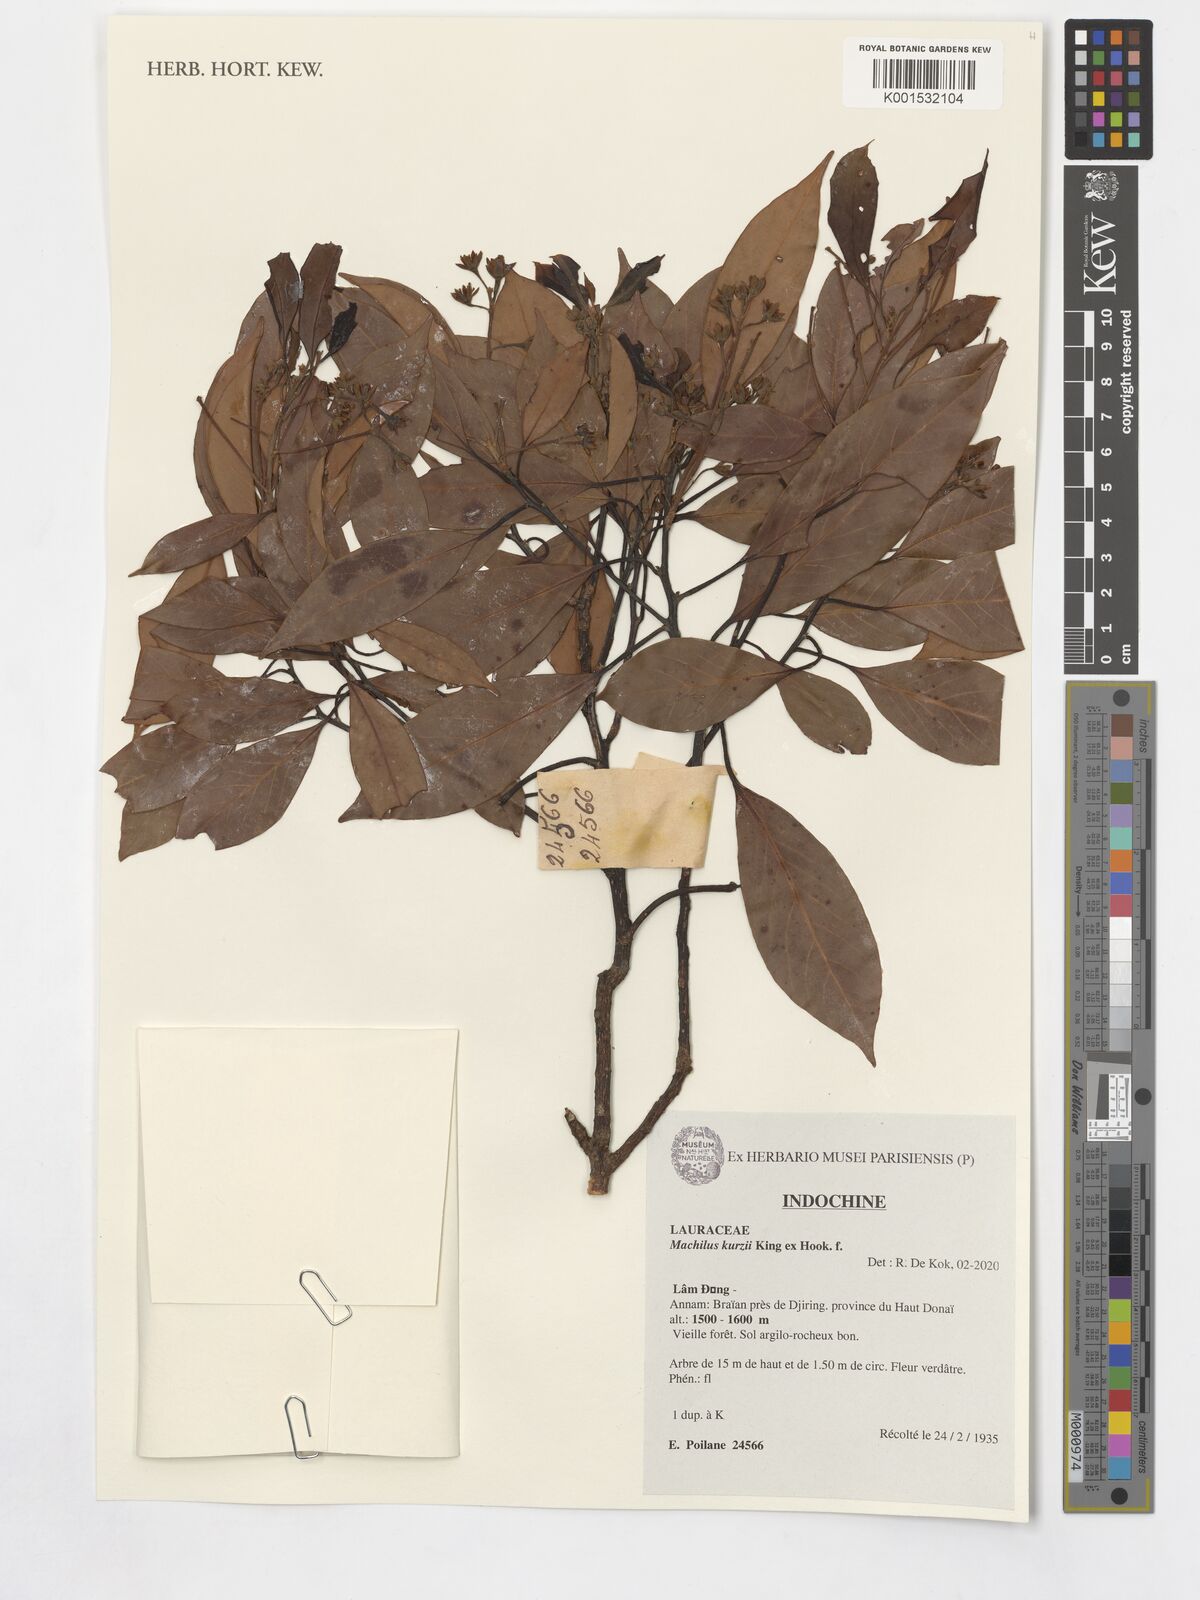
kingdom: Plantae
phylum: Tracheophyta
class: Magnoliopsida
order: Laurales
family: Lauraceae
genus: Machilus
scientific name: Machilus kurzii
